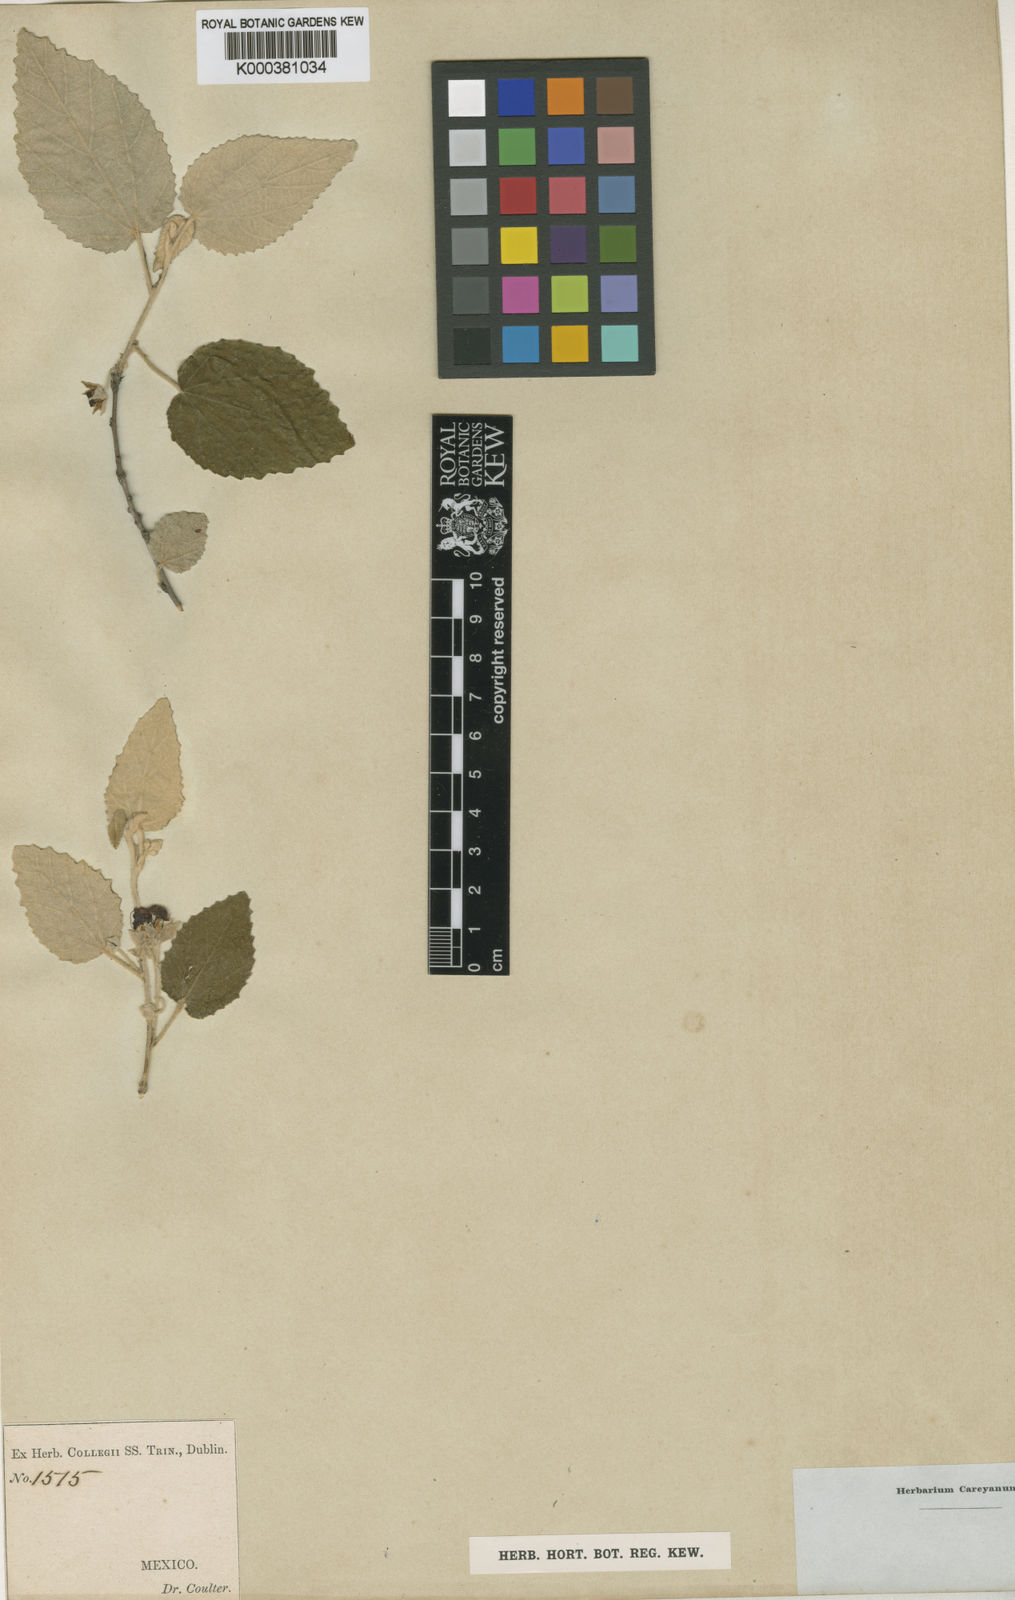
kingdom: Plantae
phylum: Tracheophyta
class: Magnoliopsida
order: Malvales
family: Malvaceae
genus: Ayenia
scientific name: Ayenia ovata
